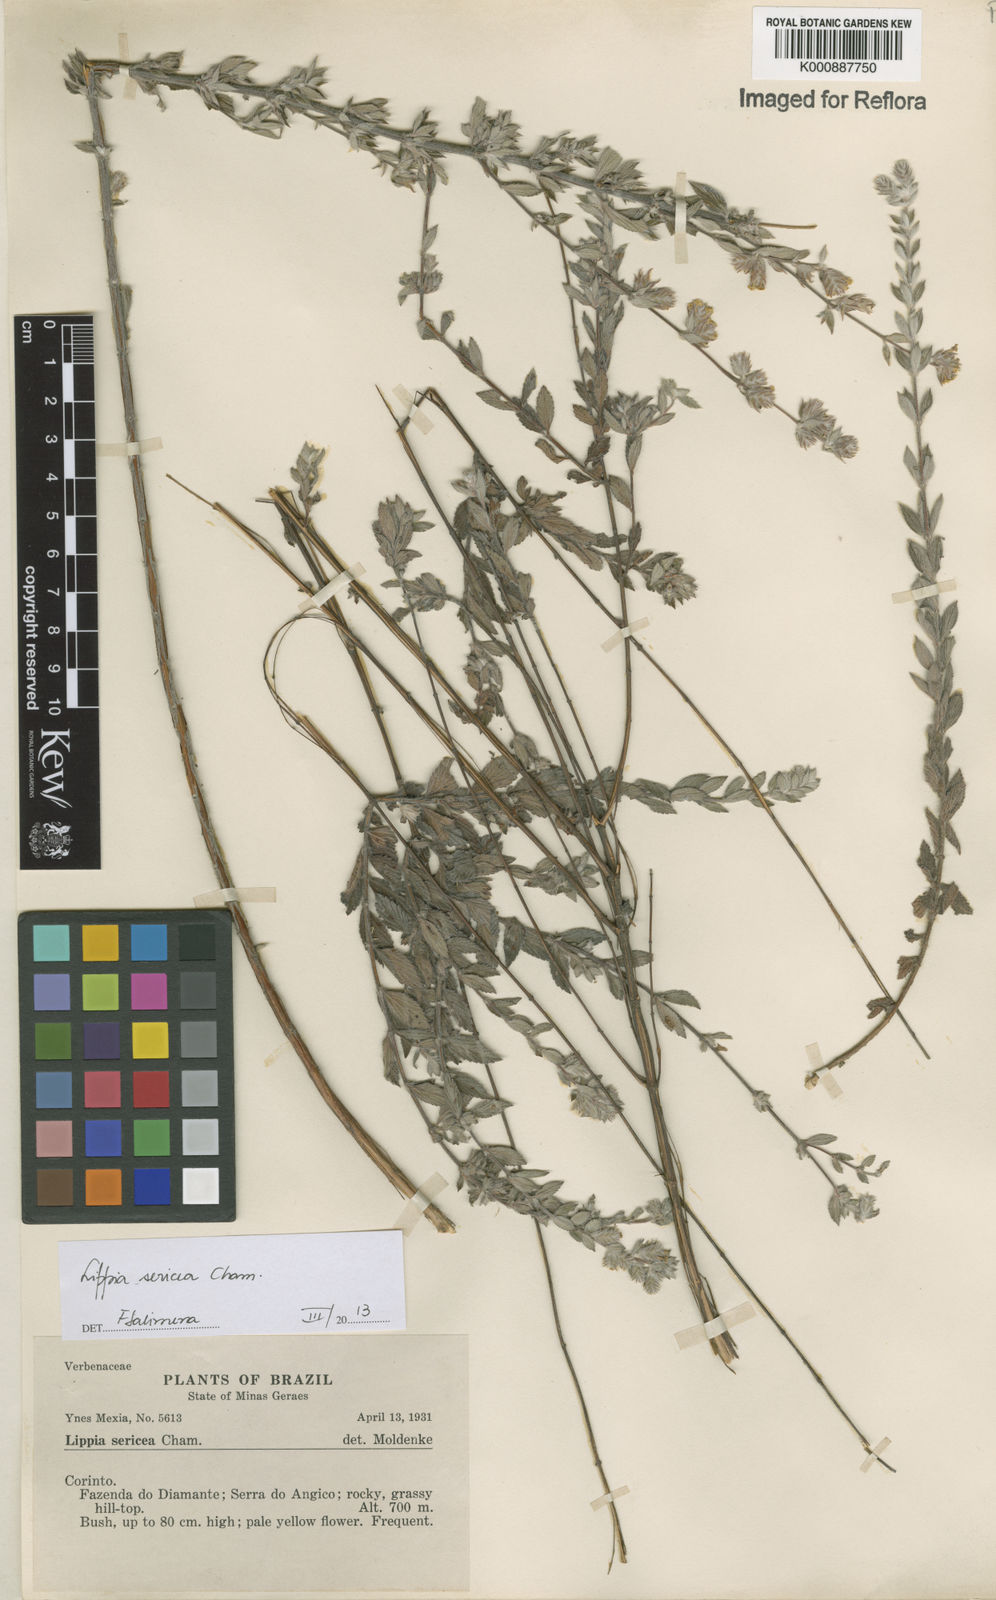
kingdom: Plantae
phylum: Tracheophyta
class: Magnoliopsida
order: Lamiales
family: Verbenaceae
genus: Lippia
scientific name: Lippia sericea
